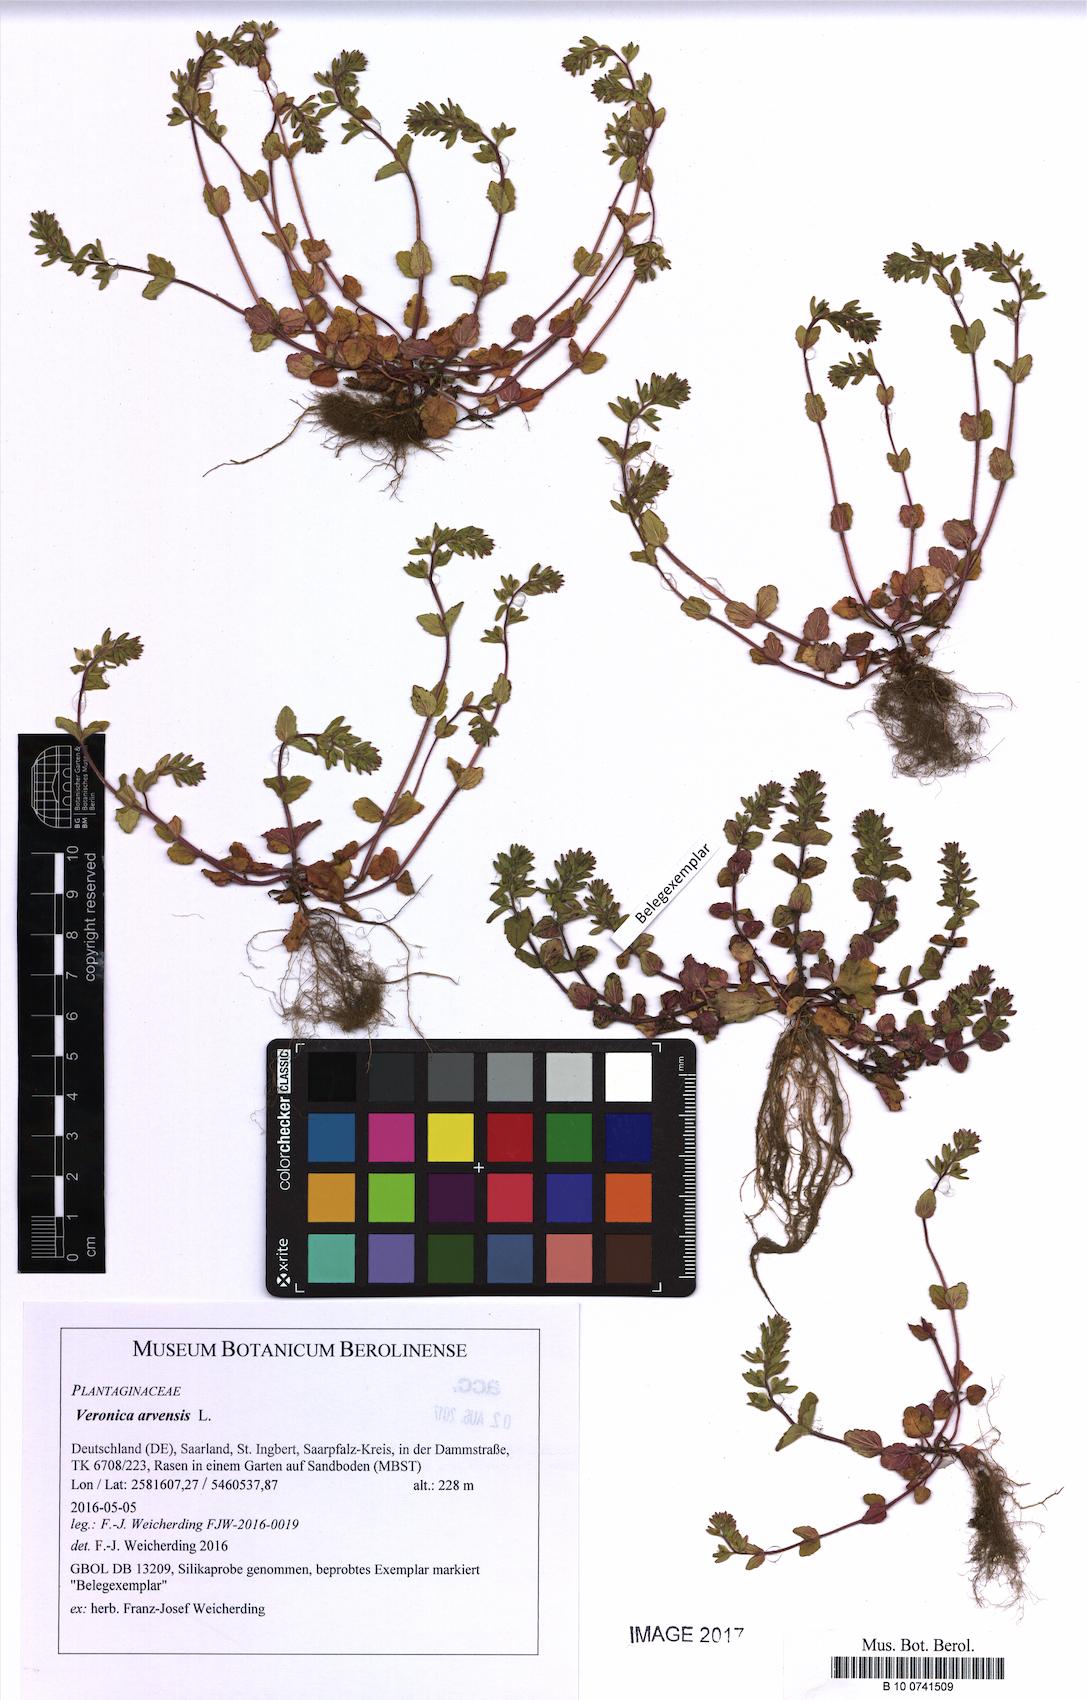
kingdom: Plantae
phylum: Tracheophyta
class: Magnoliopsida
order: Lamiales
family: Plantaginaceae
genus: Veronica
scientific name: Veronica arvensis
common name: Corn speedwell
